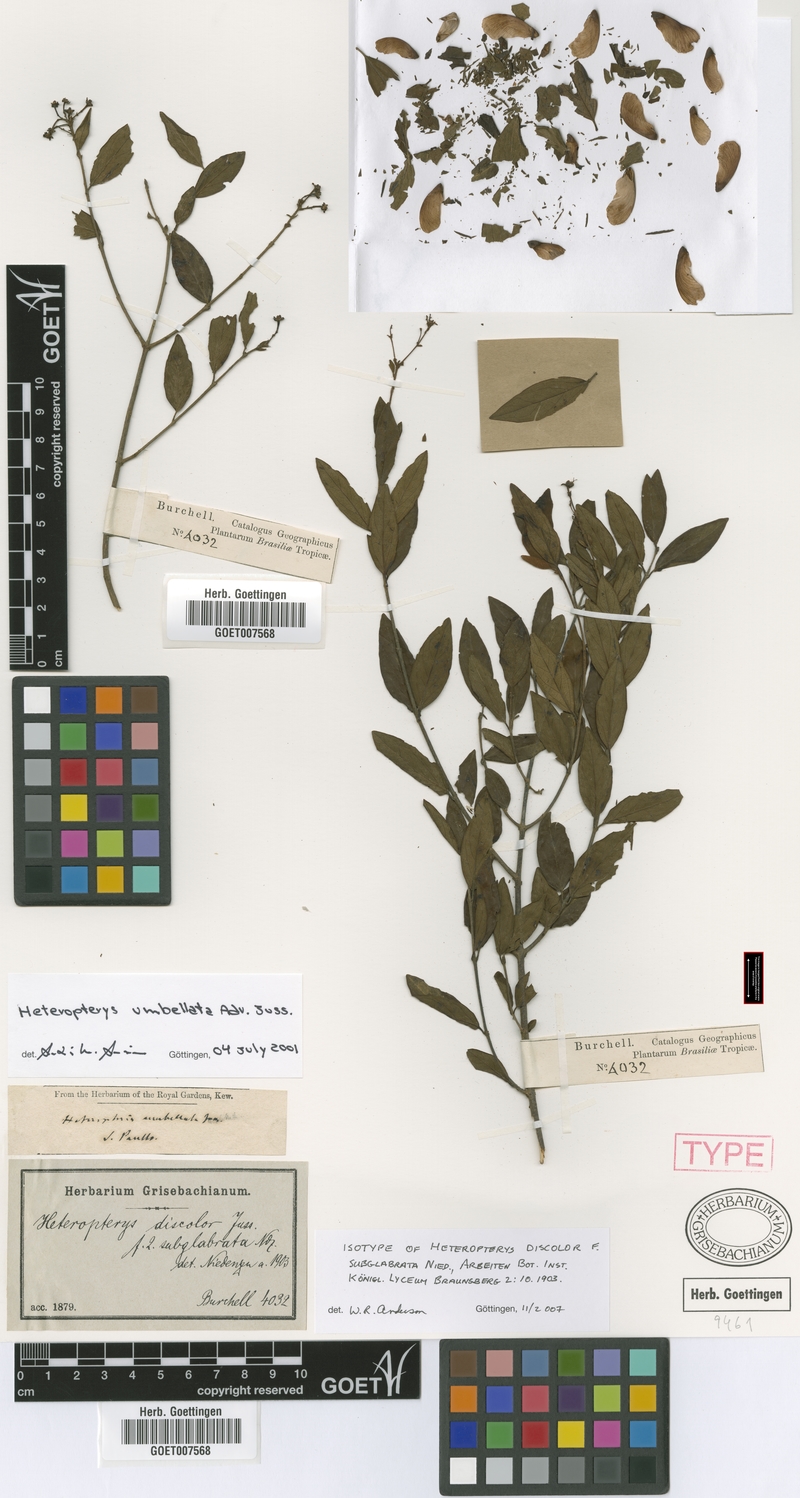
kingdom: Plantae
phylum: Tracheophyta
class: Magnoliopsida
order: Malpighiales
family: Malpighiaceae
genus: Heteropterys
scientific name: Heteropterys umbellata
